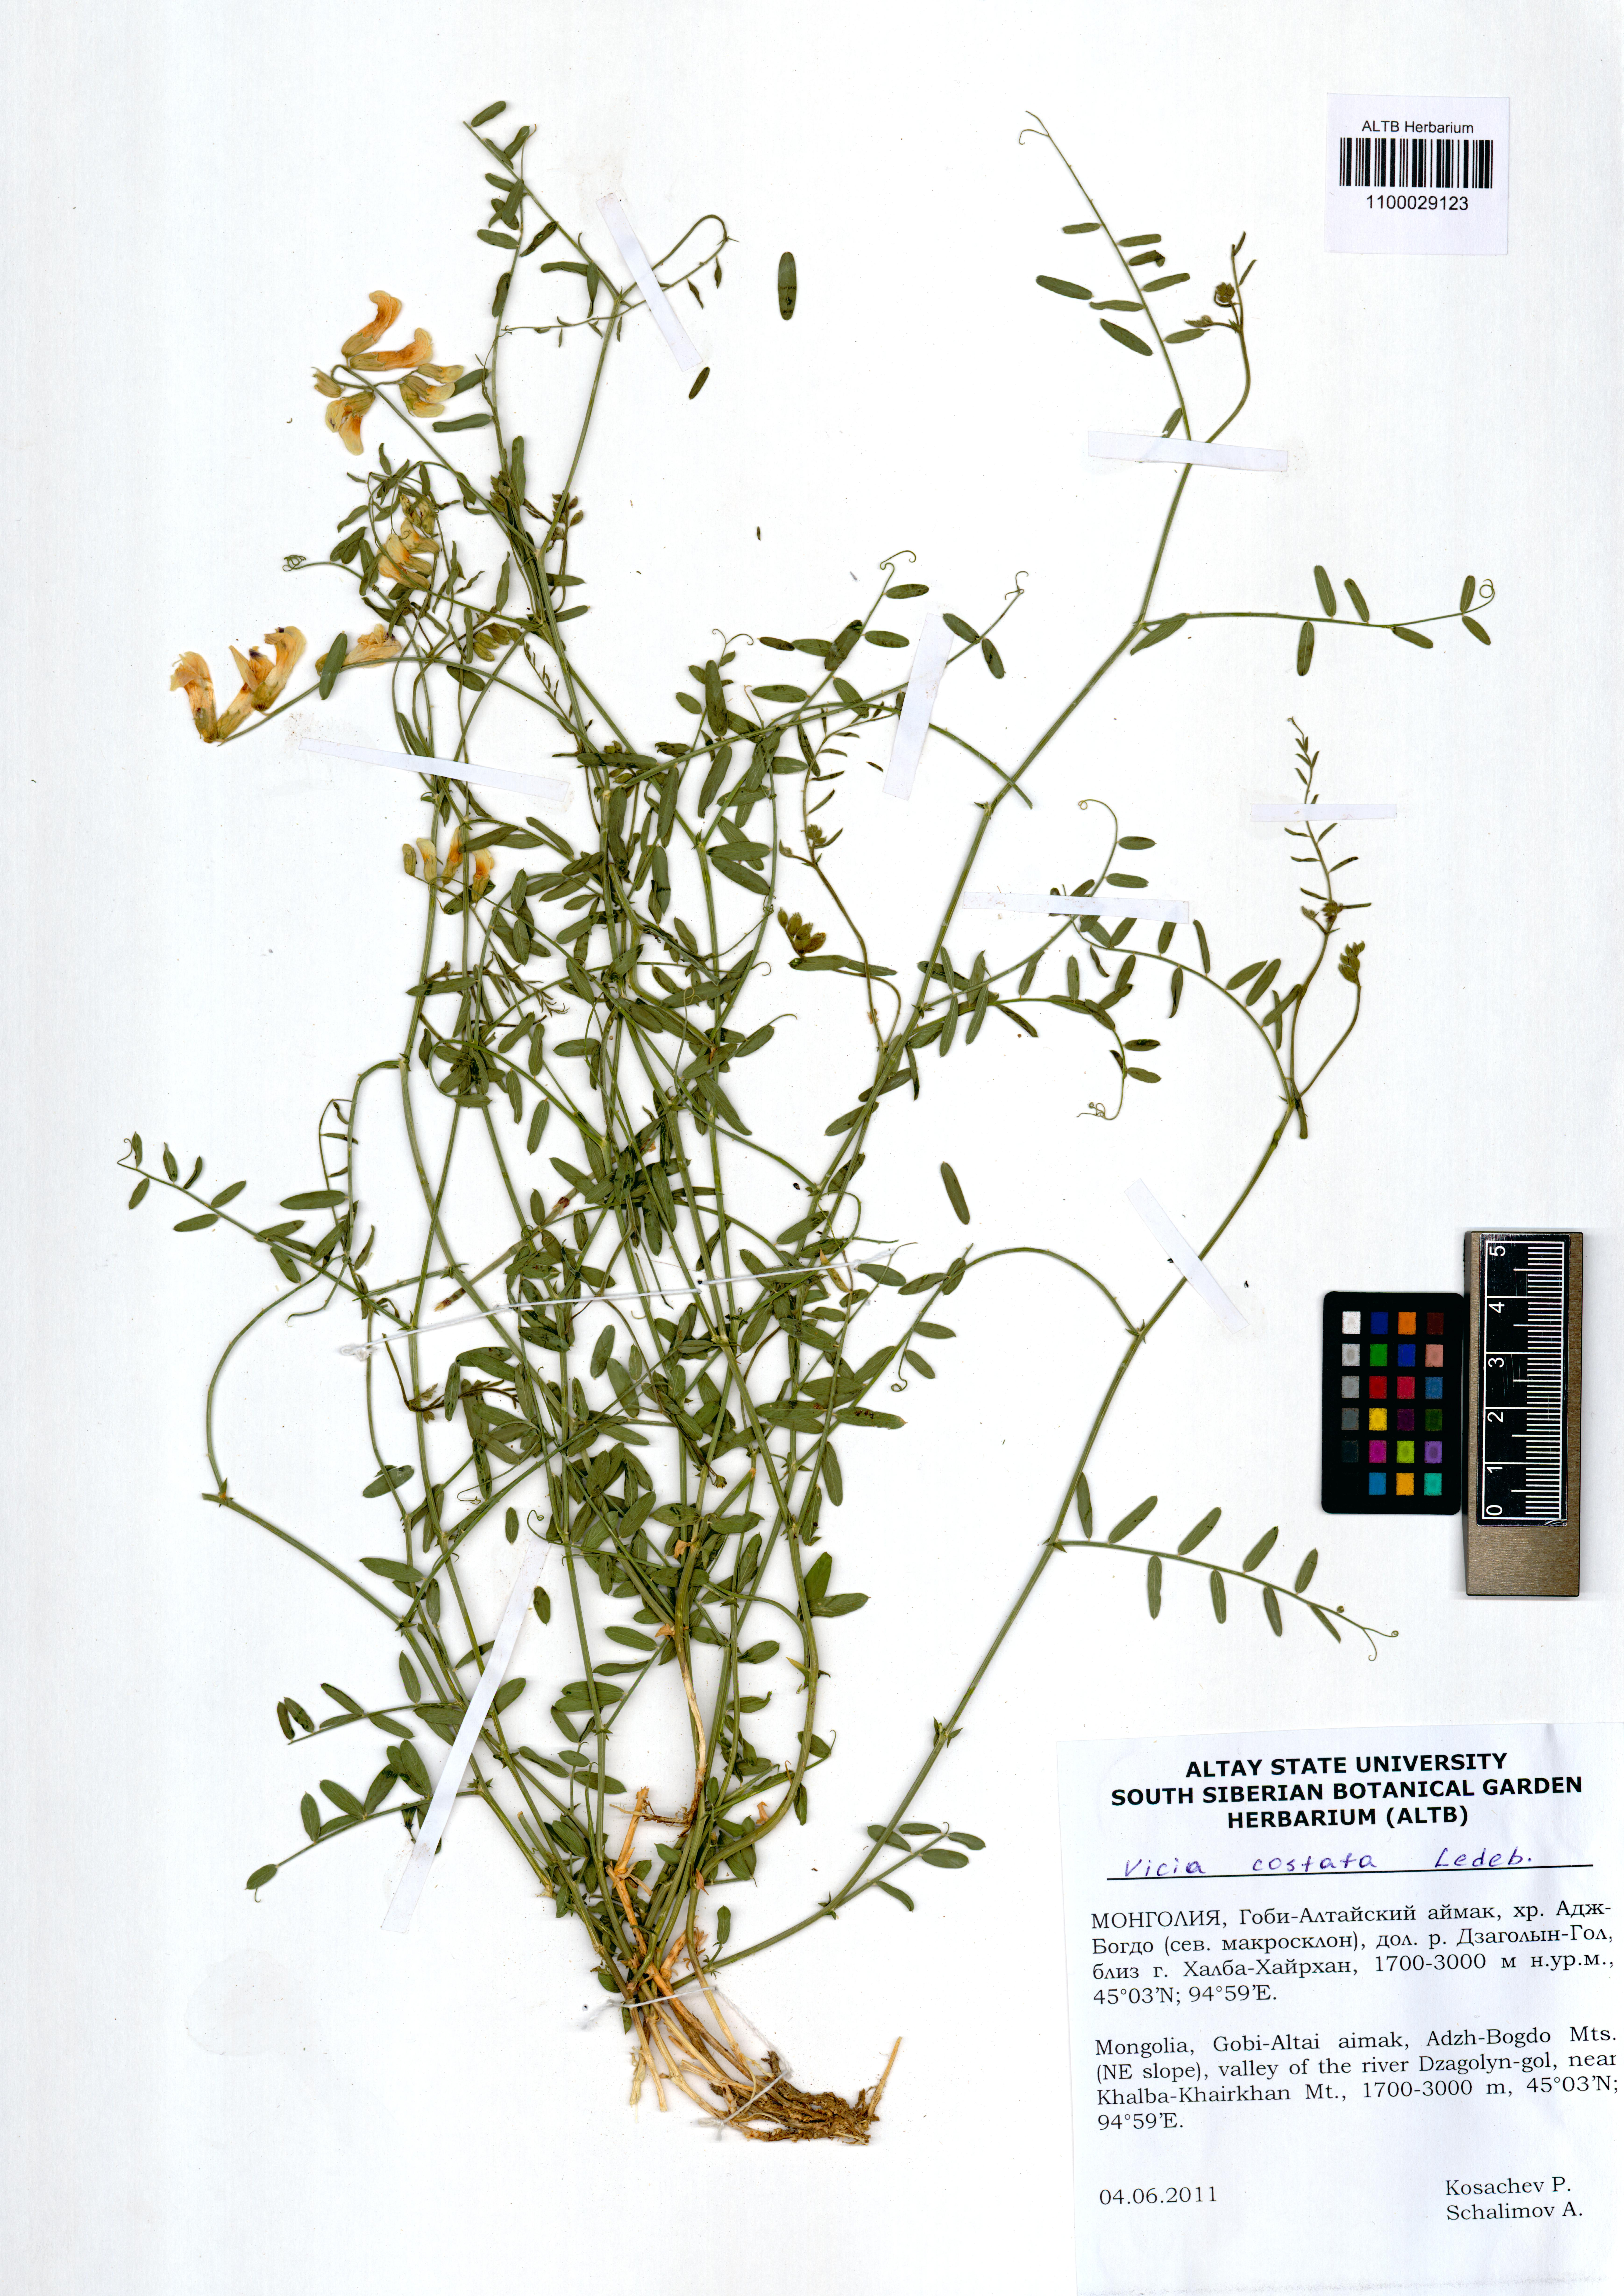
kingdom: Plantae
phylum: Tracheophyta
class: Magnoliopsida
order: Fabales
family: Fabaceae
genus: Vicia
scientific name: Vicia costata
